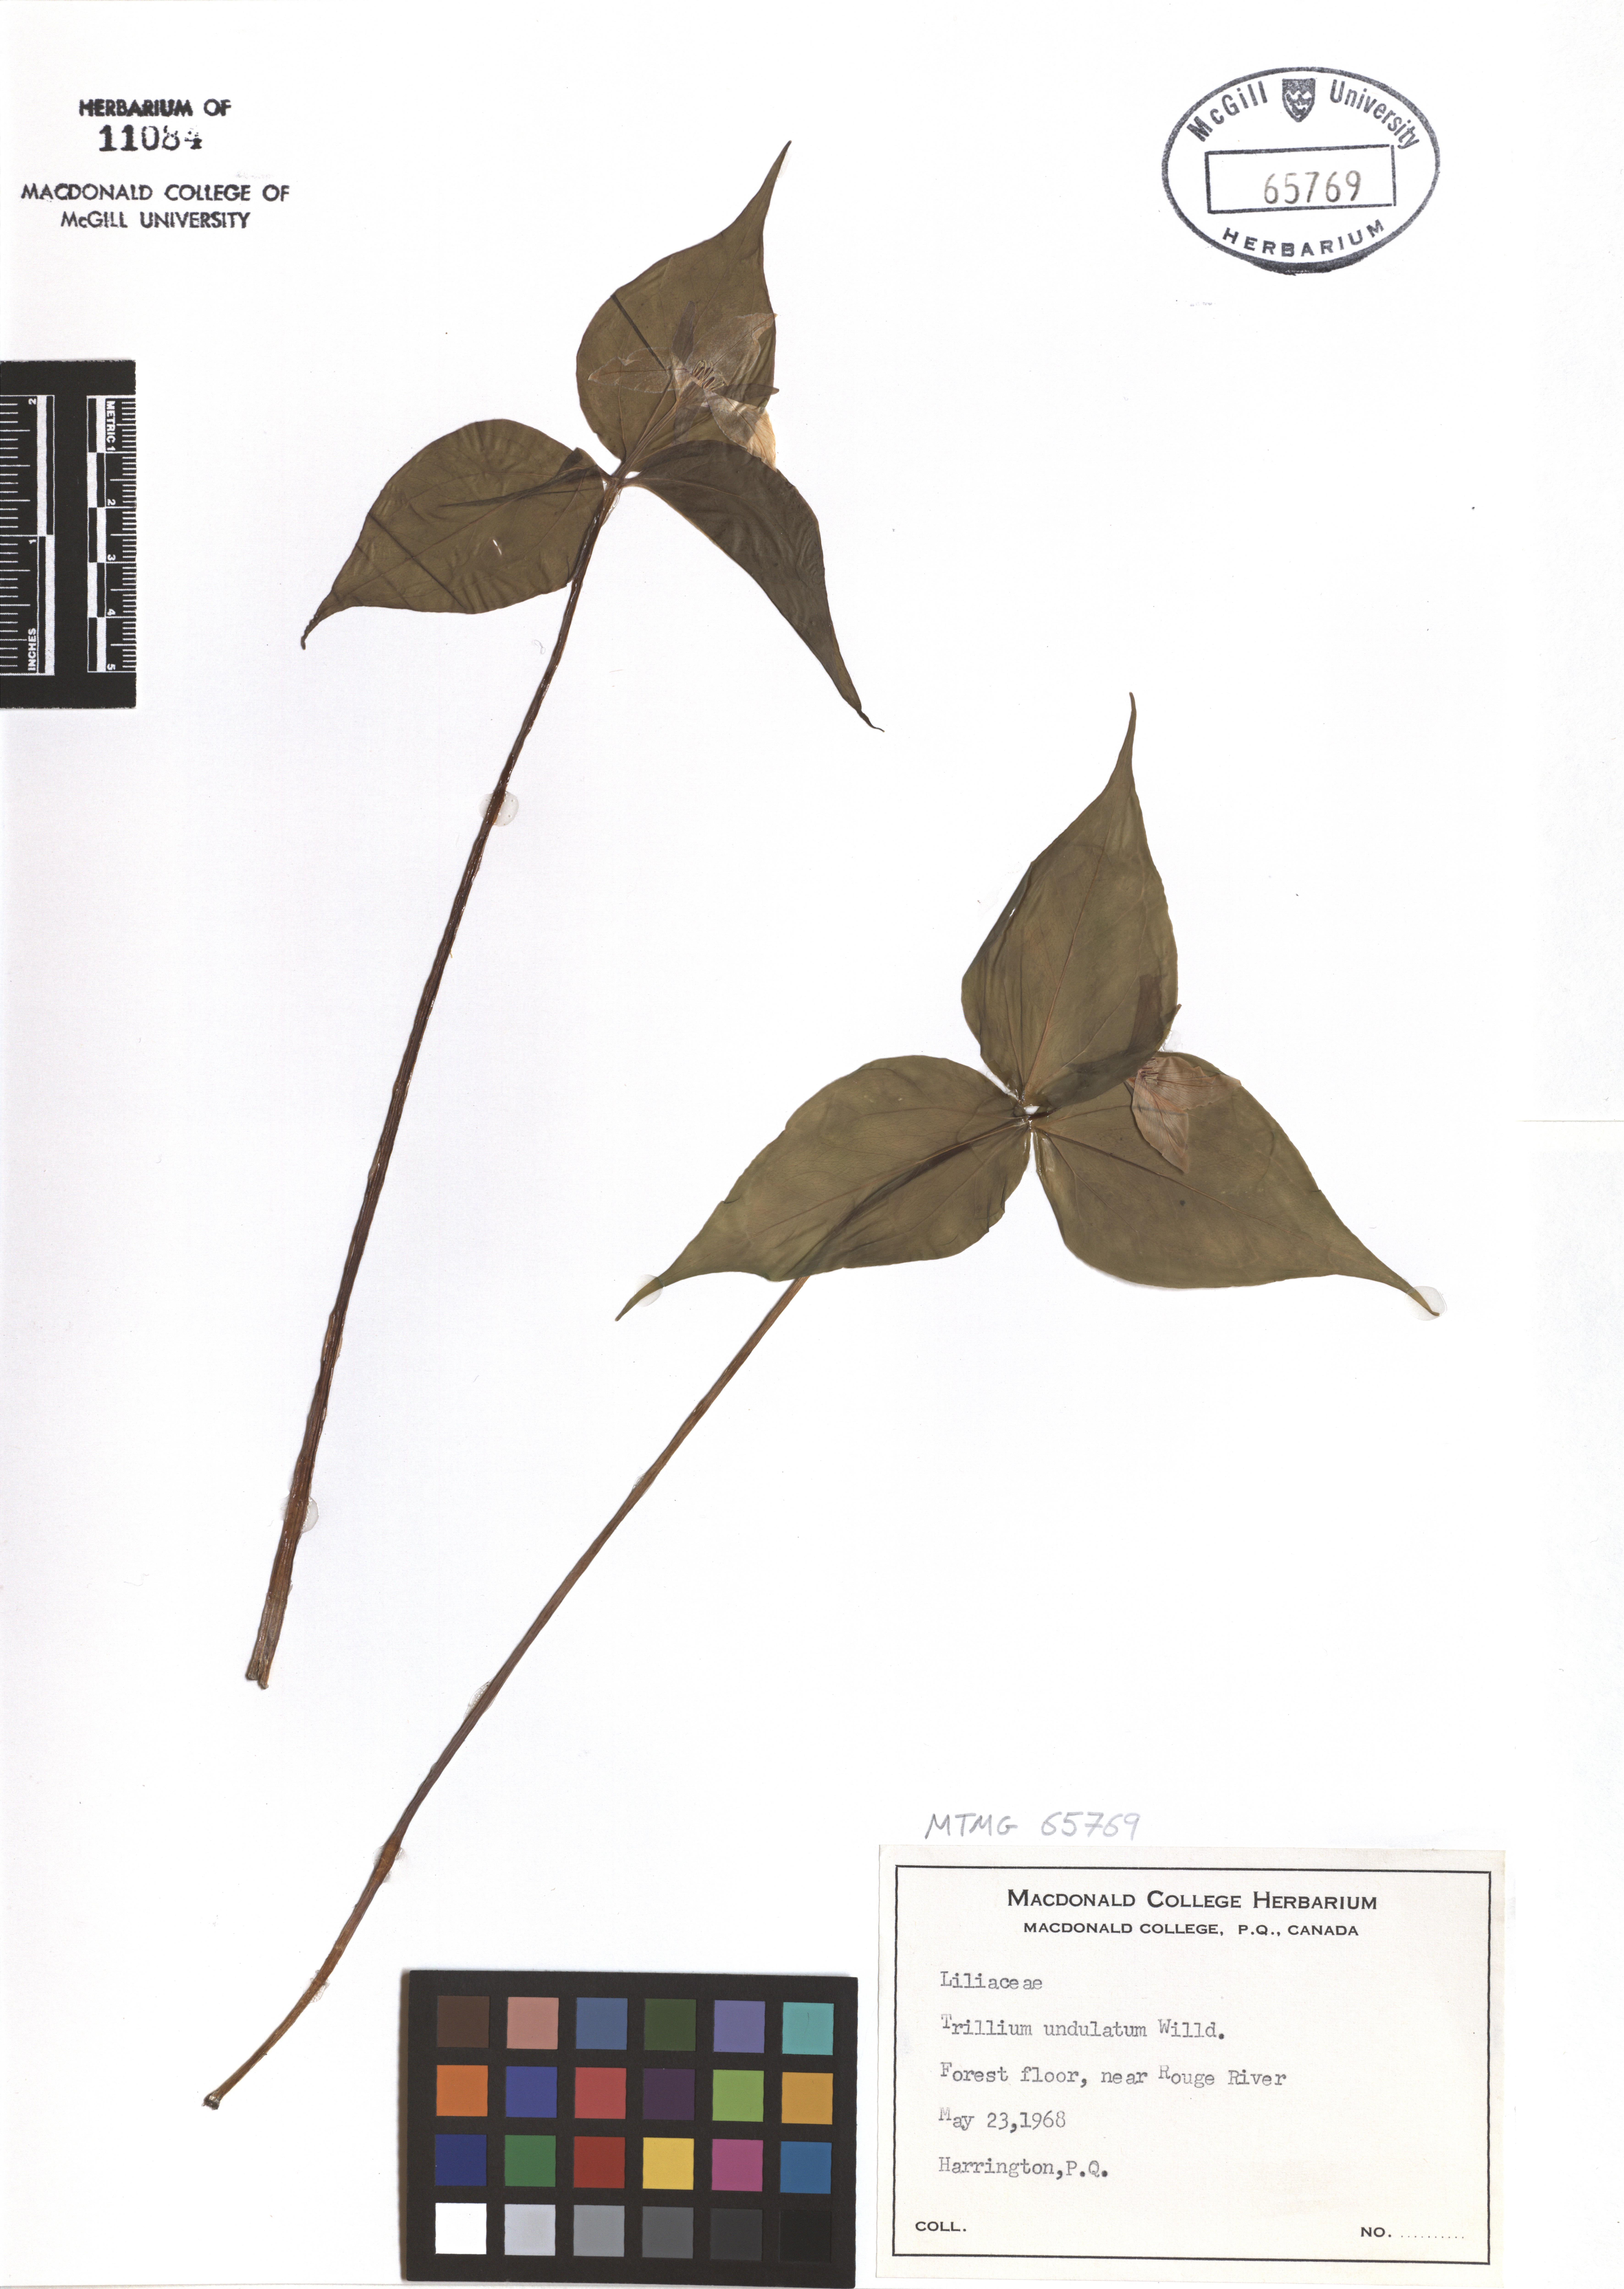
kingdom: Plantae
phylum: Tracheophyta
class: Liliopsida
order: Liliales
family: Melanthiaceae
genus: Trillium
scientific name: Trillium undulatum
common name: Paint trillium
